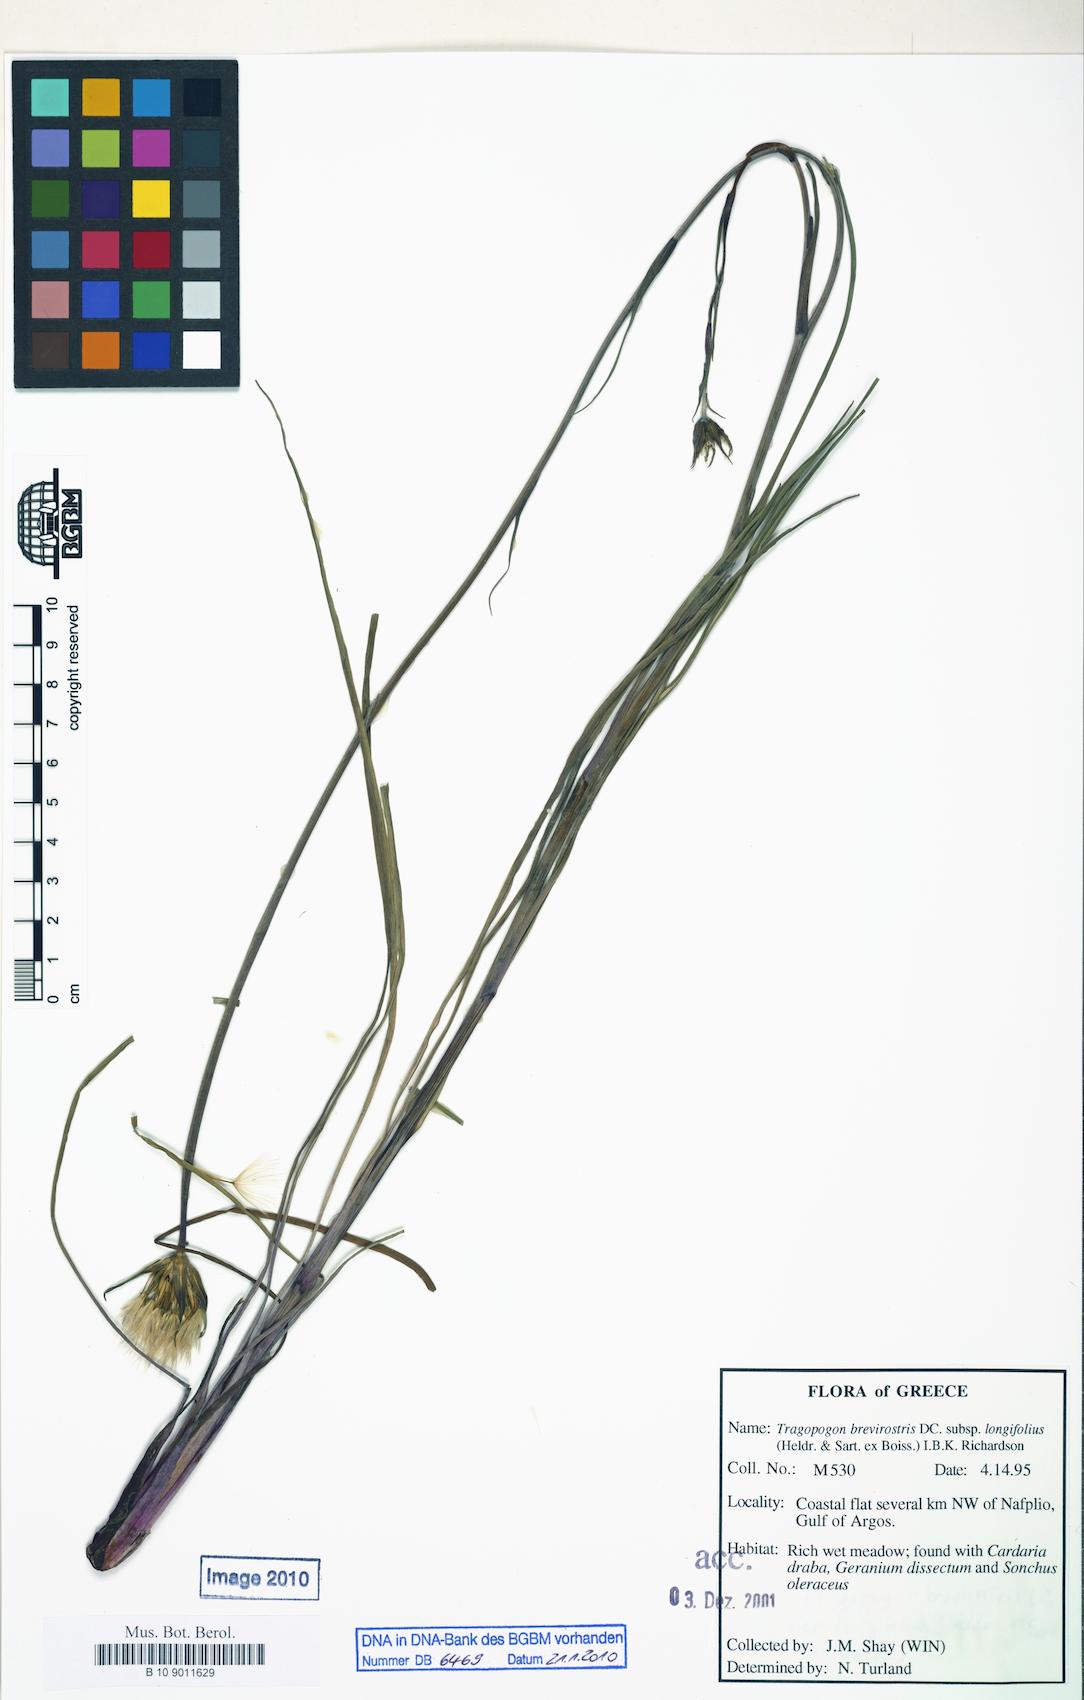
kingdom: Plantae
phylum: Tracheophyta
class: Magnoliopsida
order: Asterales
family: Asteraceae
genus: Tragopogon
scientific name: Tragopogon longifolius
